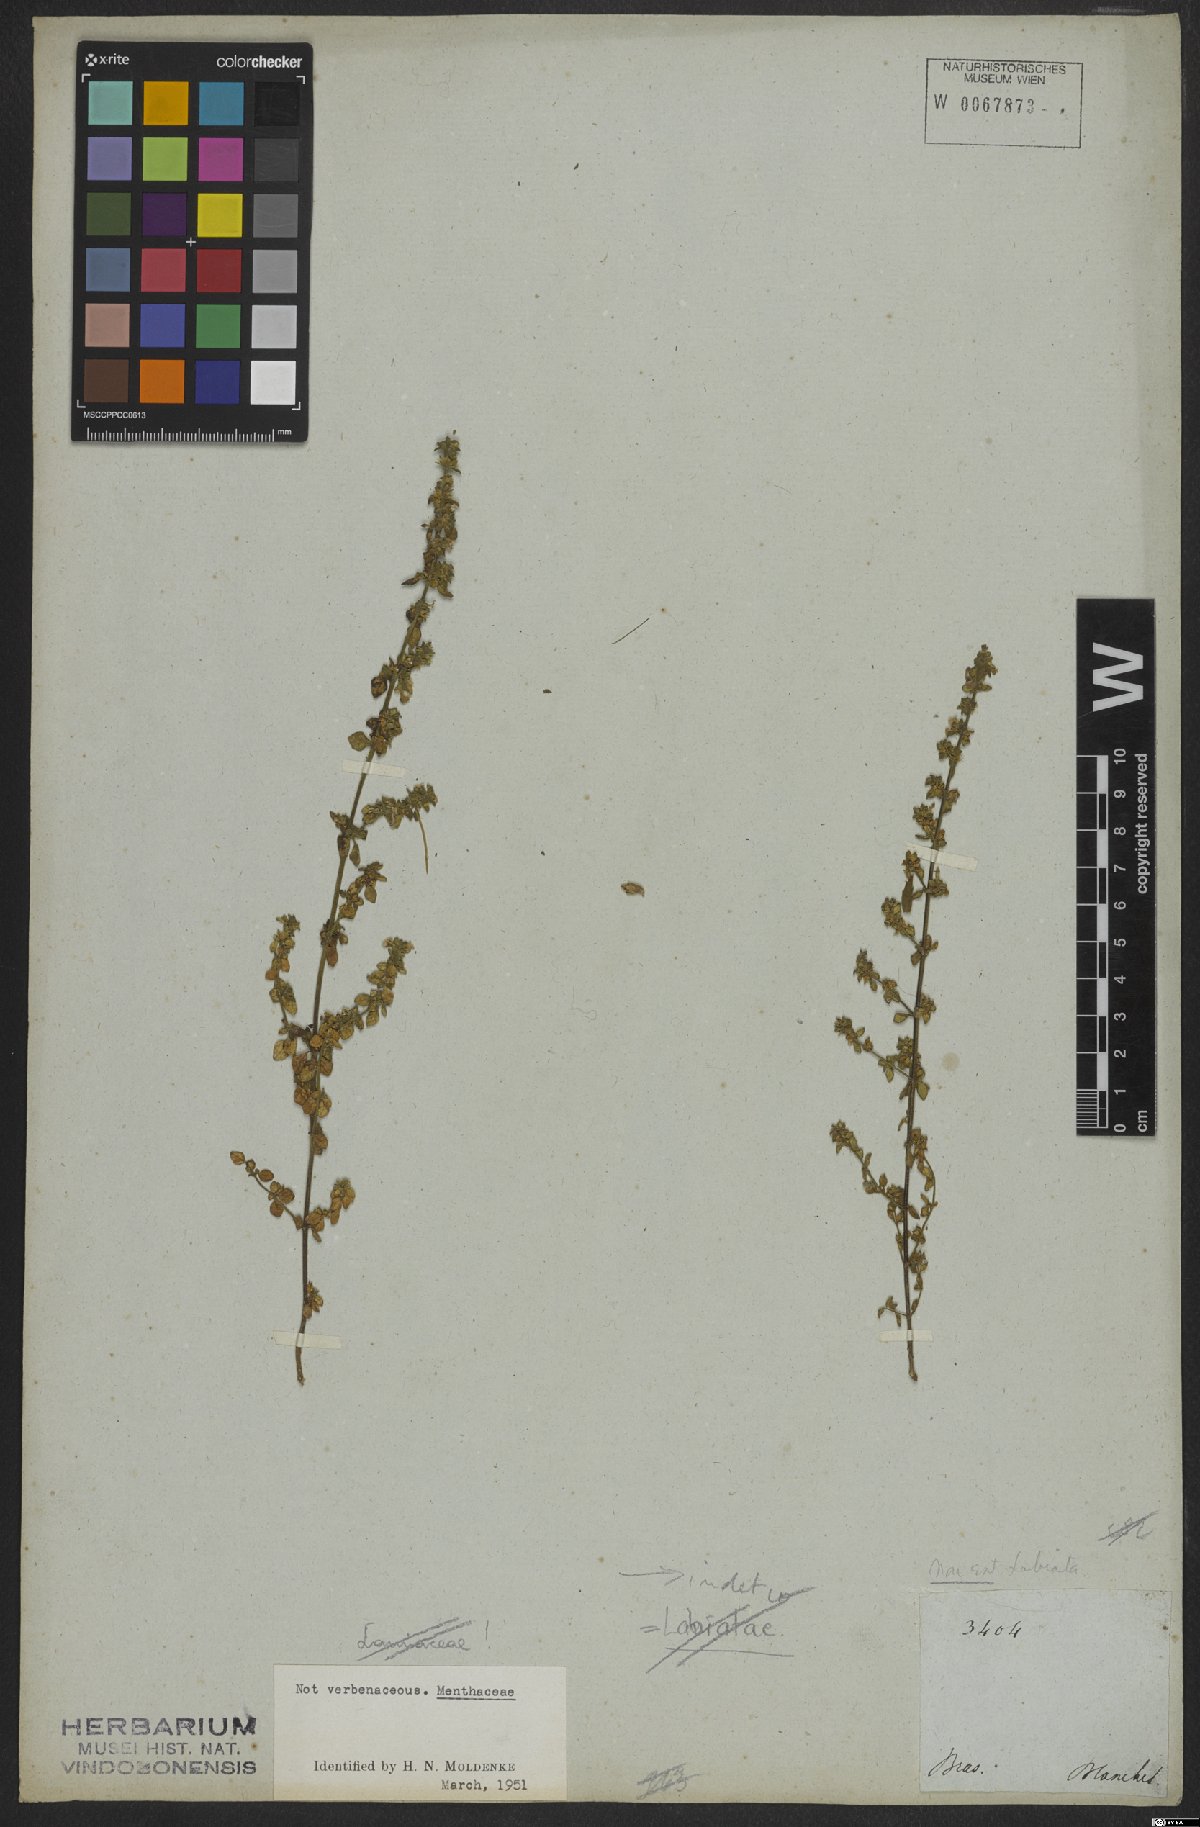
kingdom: Plantae
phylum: Tracheophyta
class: Magnoliopsida
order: Lamiales
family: Plantaginaceae
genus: Matourea
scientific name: Matourea scutellarioides
